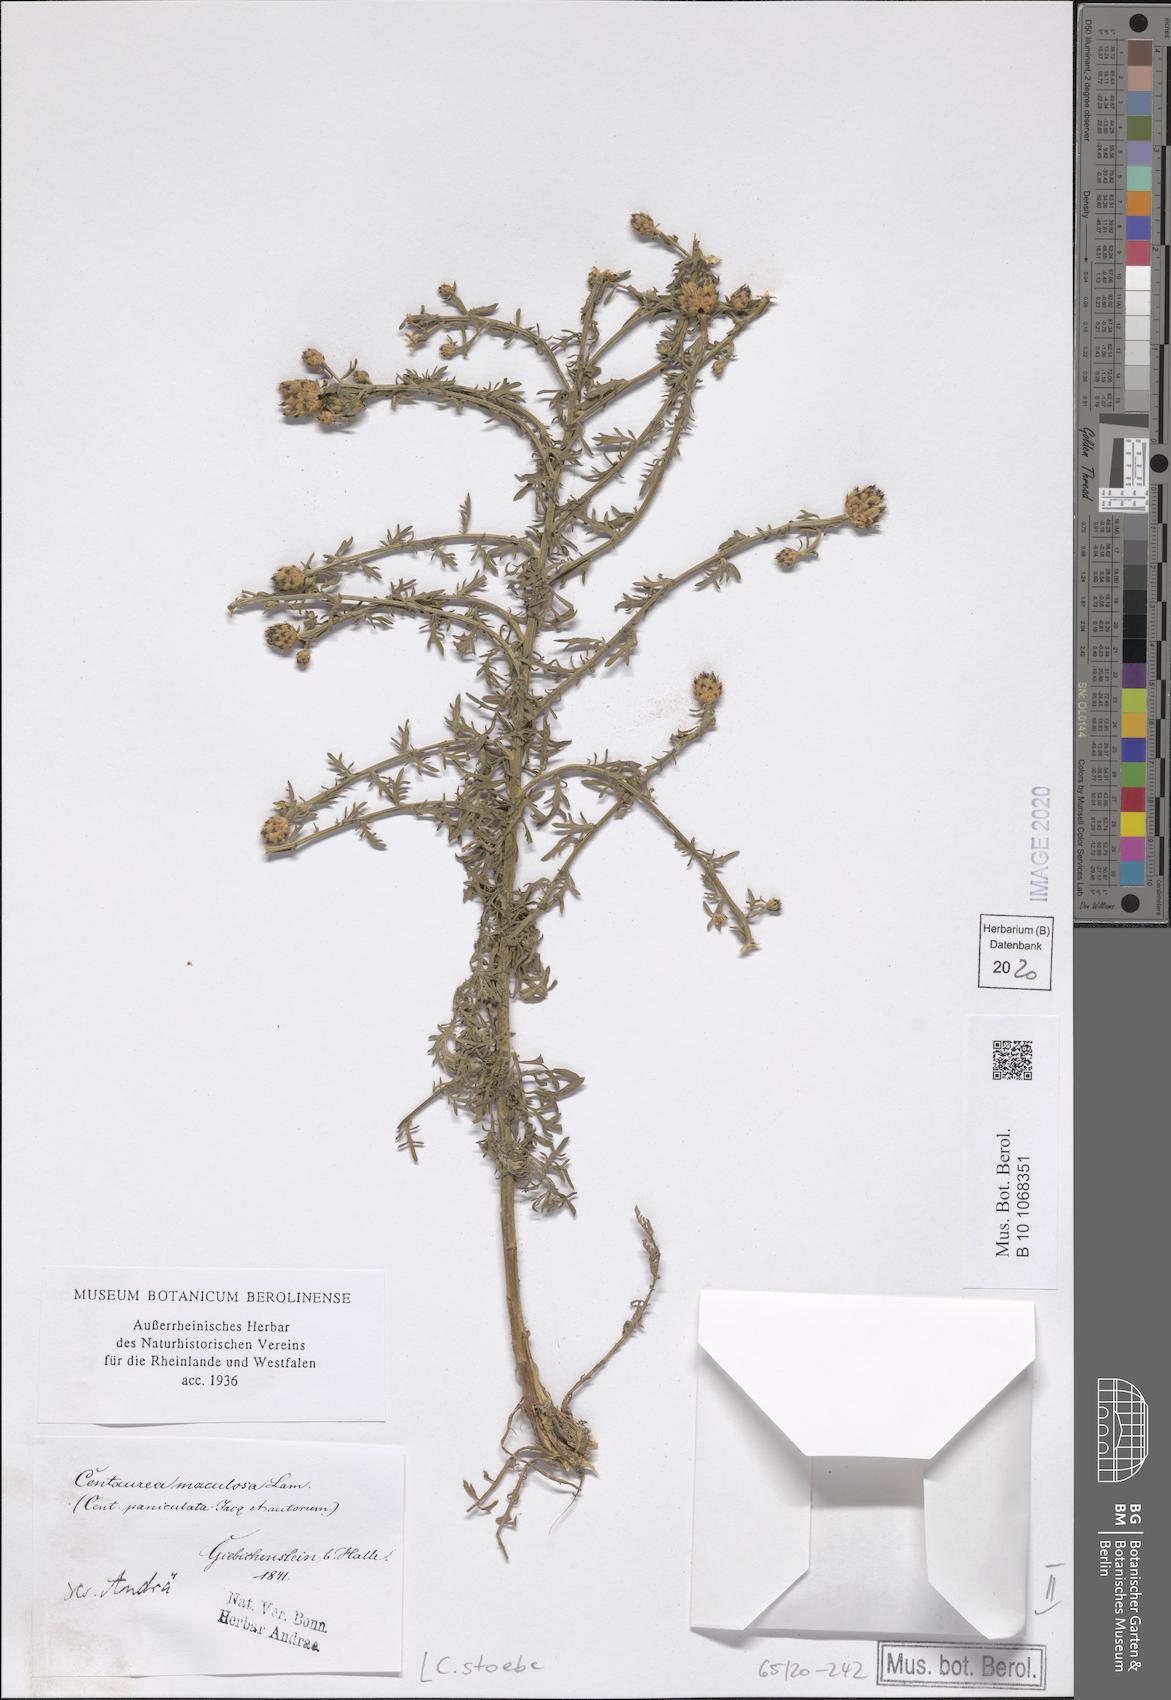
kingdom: Plantae
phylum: Tracheophyta
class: Magnoliopsida
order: Asterales
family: Asteraceae
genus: Centaurea
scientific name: Centaurea stoebe
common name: Spotted knapweed
